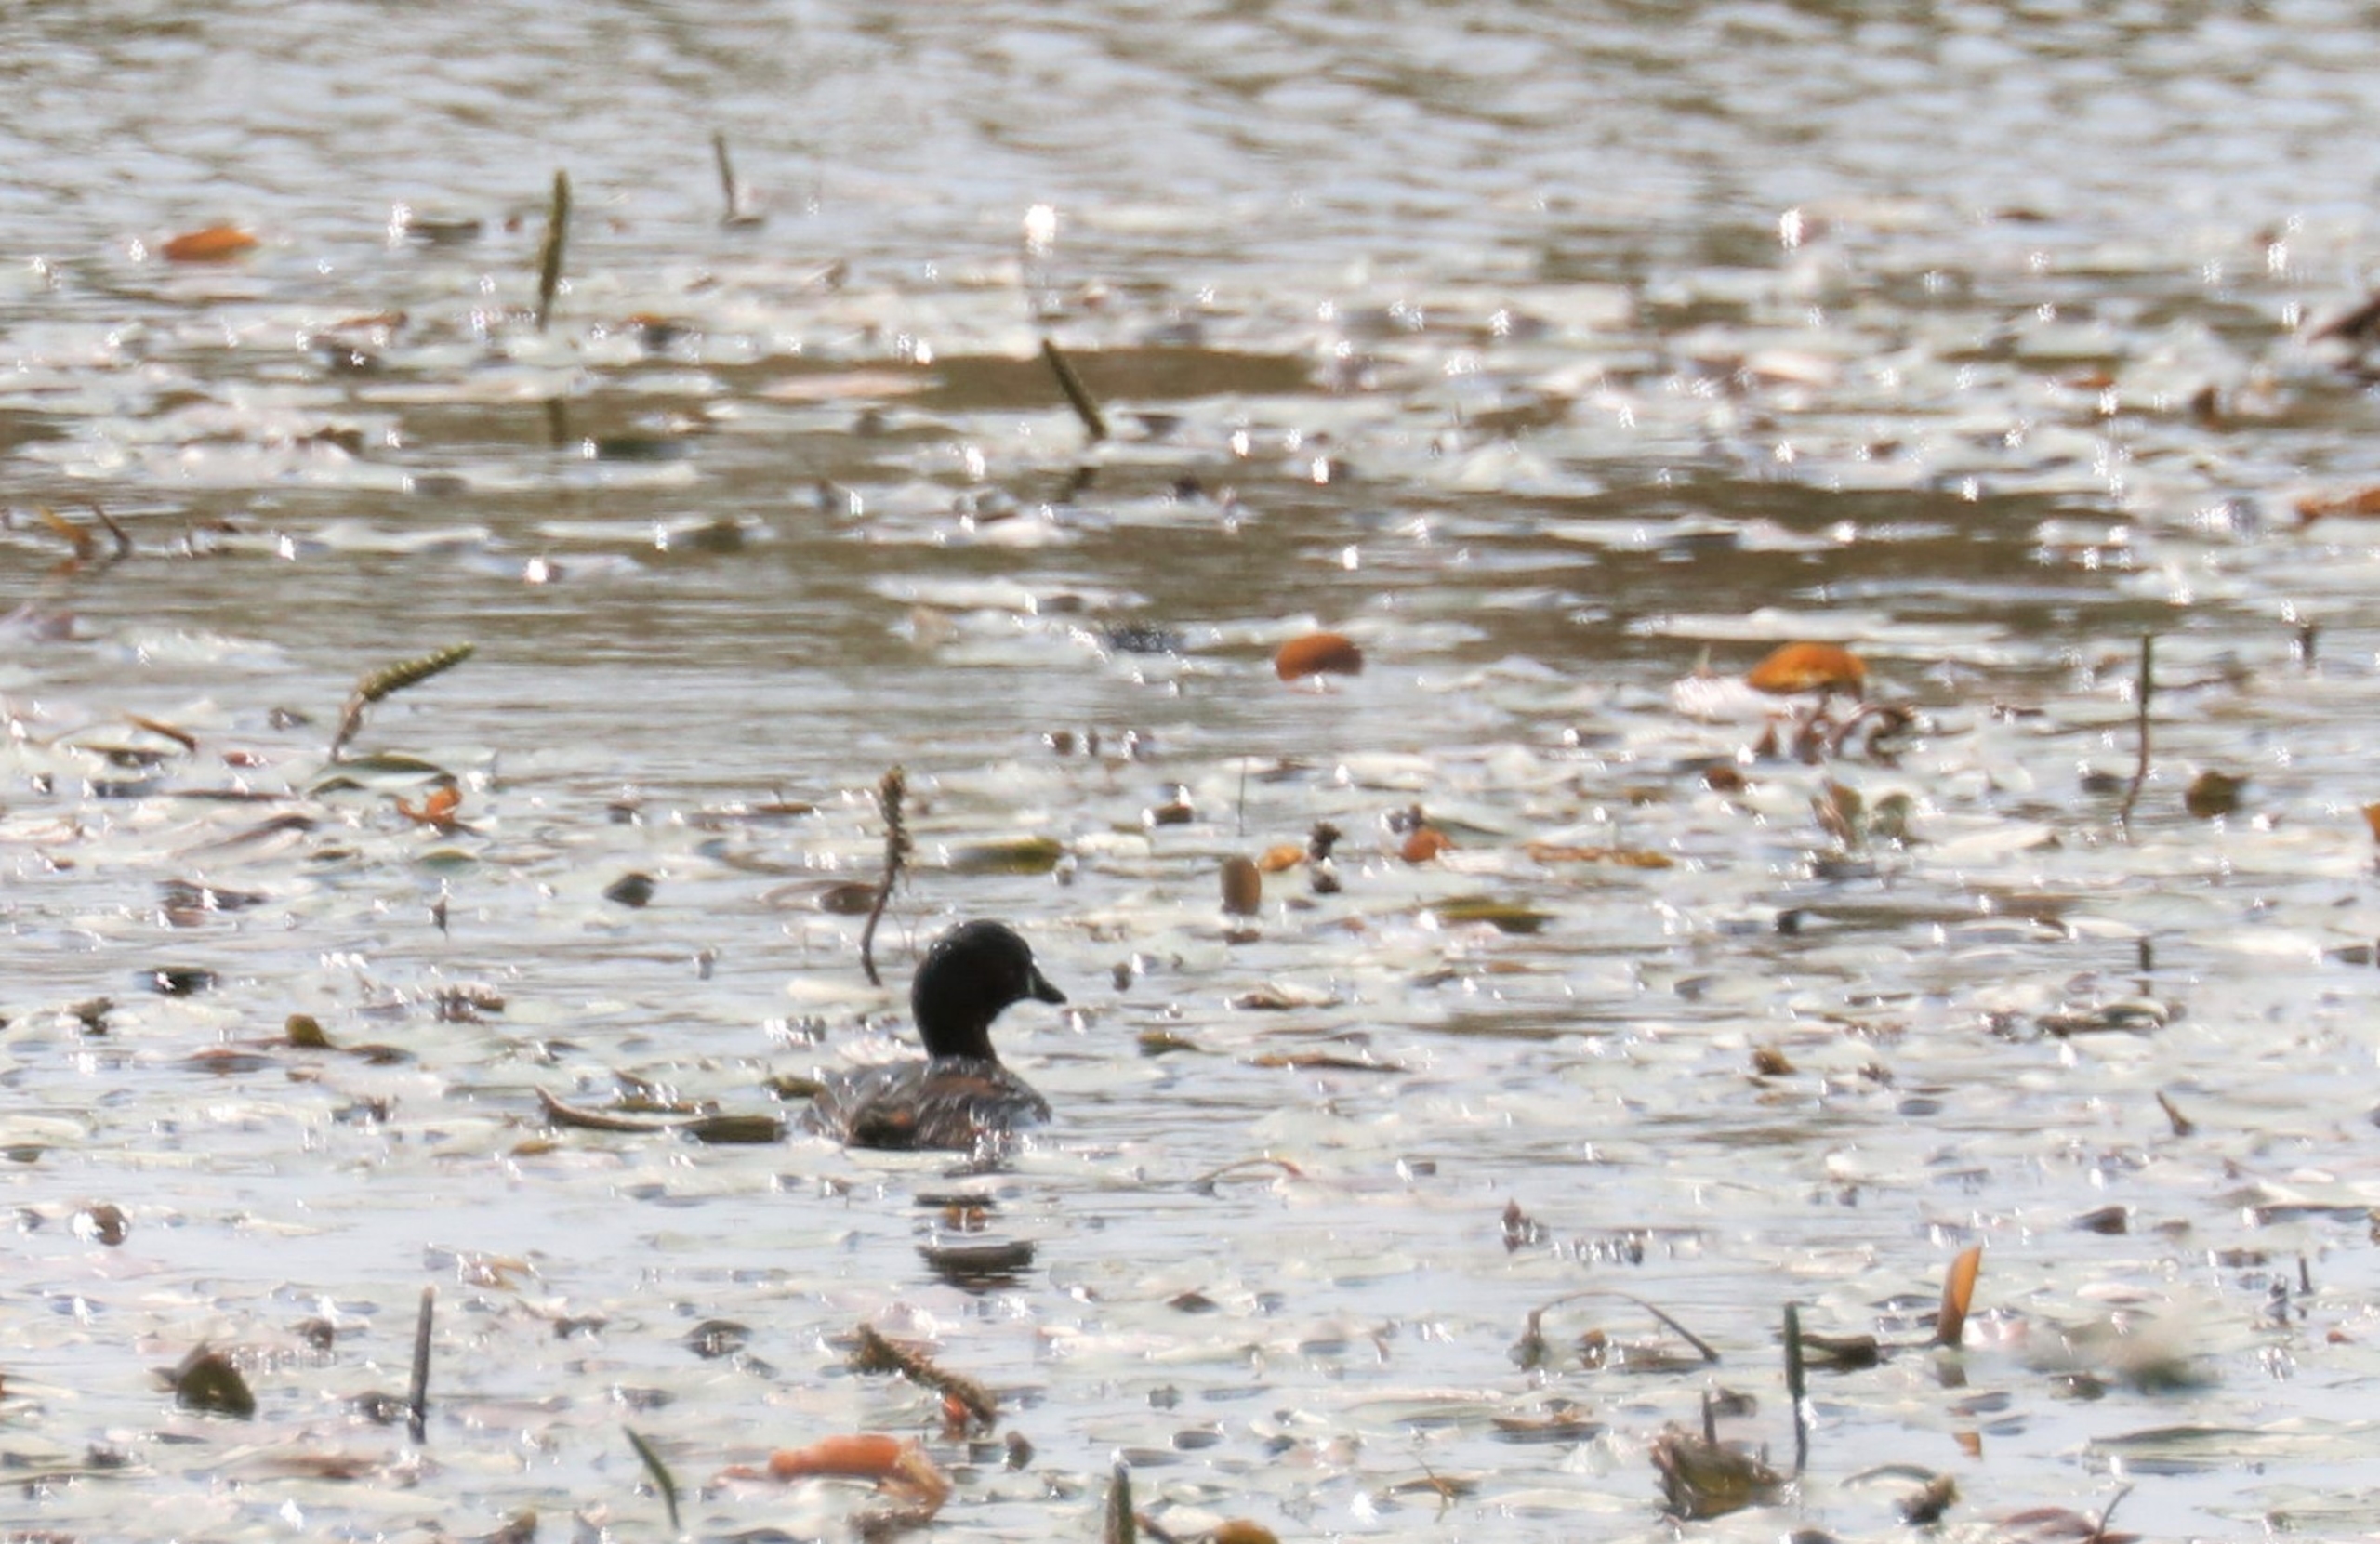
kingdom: Animalia
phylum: Chordata
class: Aves
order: Podicipediformes
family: Podicipedidae
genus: Tachybaptus
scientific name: Tachybaptus ruficollis
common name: Lille lappedykker
